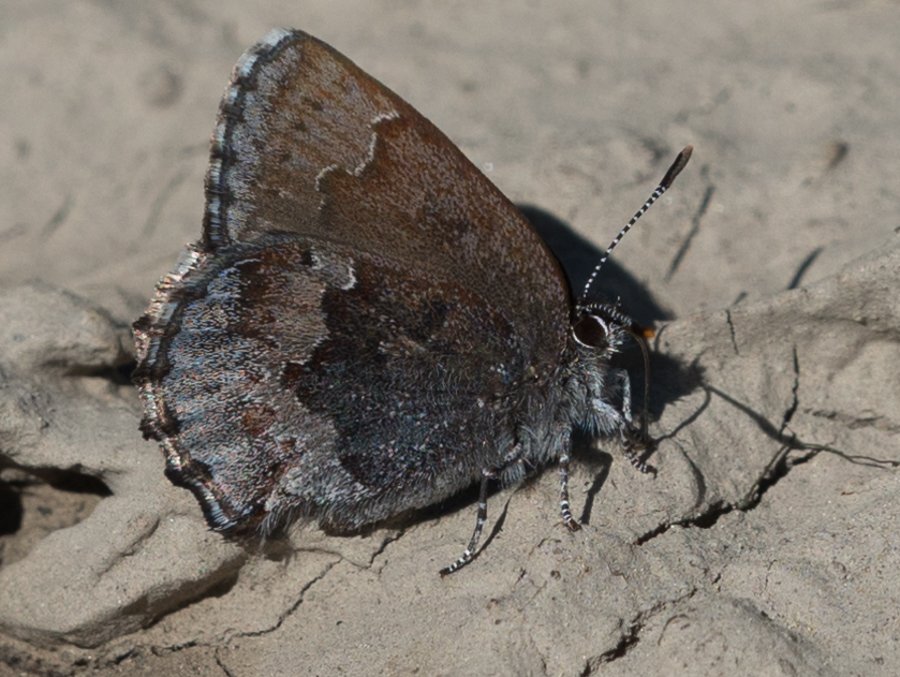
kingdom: Animalia
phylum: Arthropoda
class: Insecta
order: Lepidoptera
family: Lycaenidae
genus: Callophrys
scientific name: Callophrys polios
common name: Hoary Elfin
